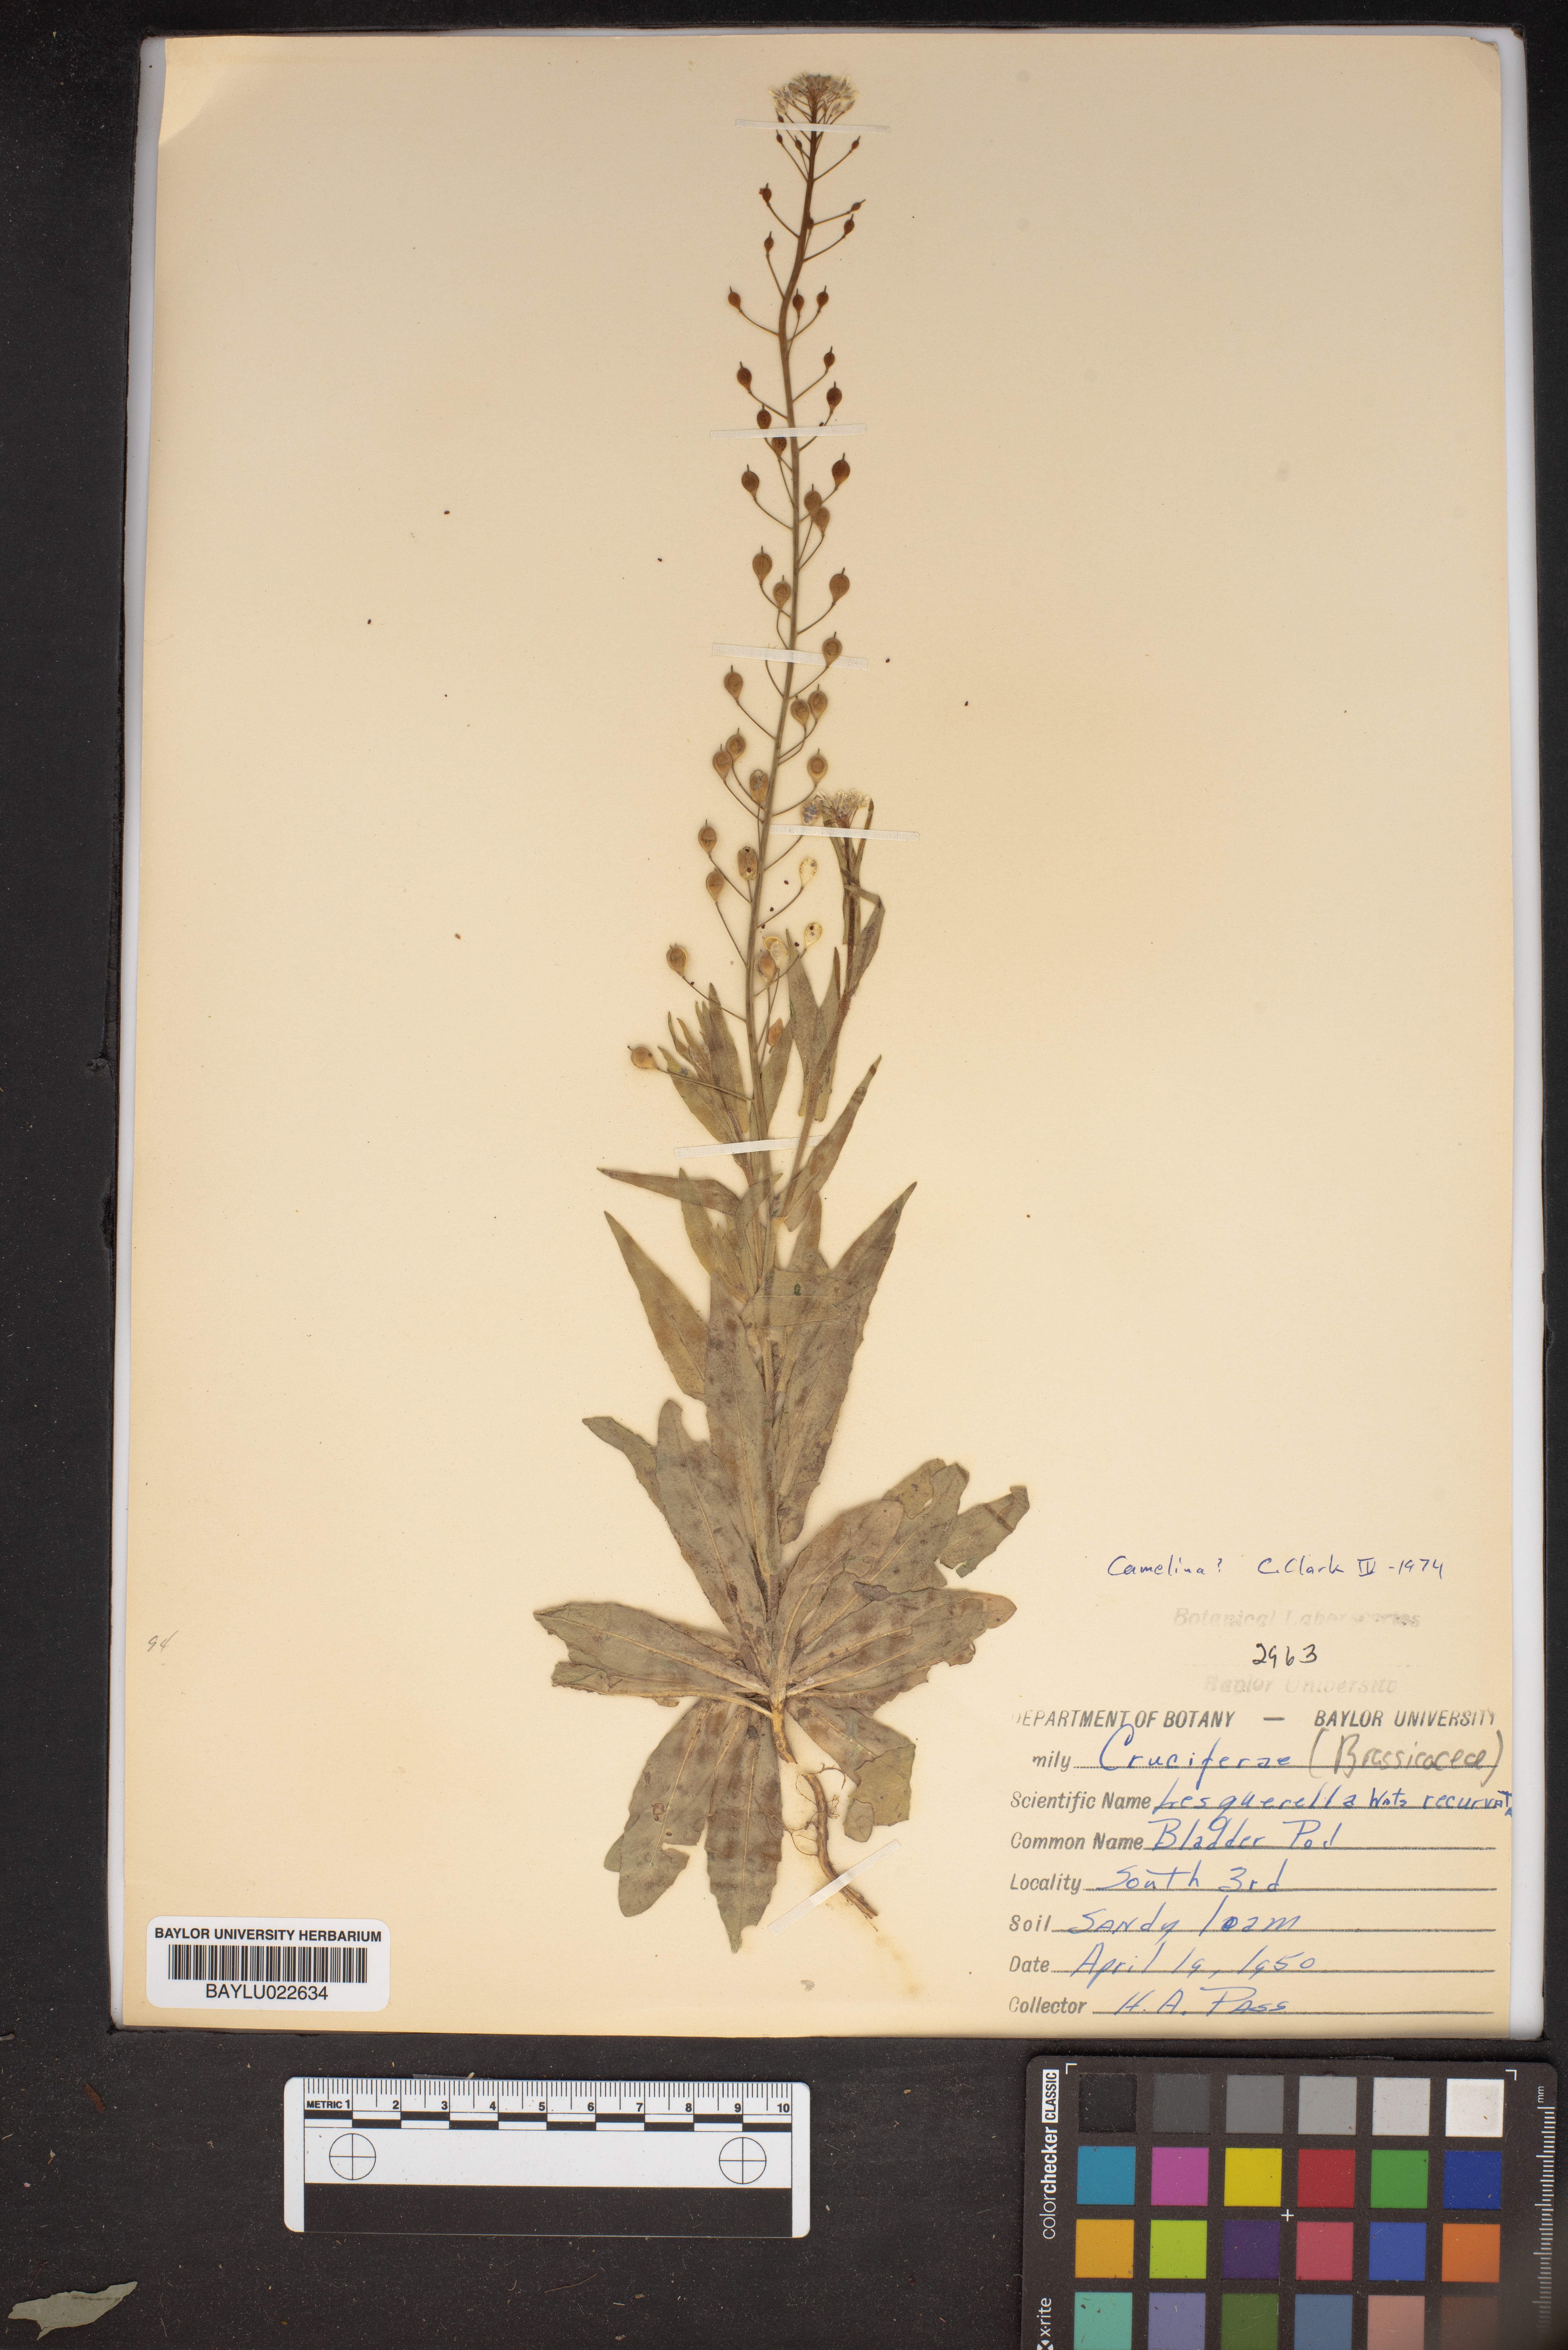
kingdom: Plantae
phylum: Tracheophyta
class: Magnoliopsida
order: Brassicales
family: Brassicaceae
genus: Physaria
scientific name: Physaria recurvata
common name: Gaslight bladderpod
